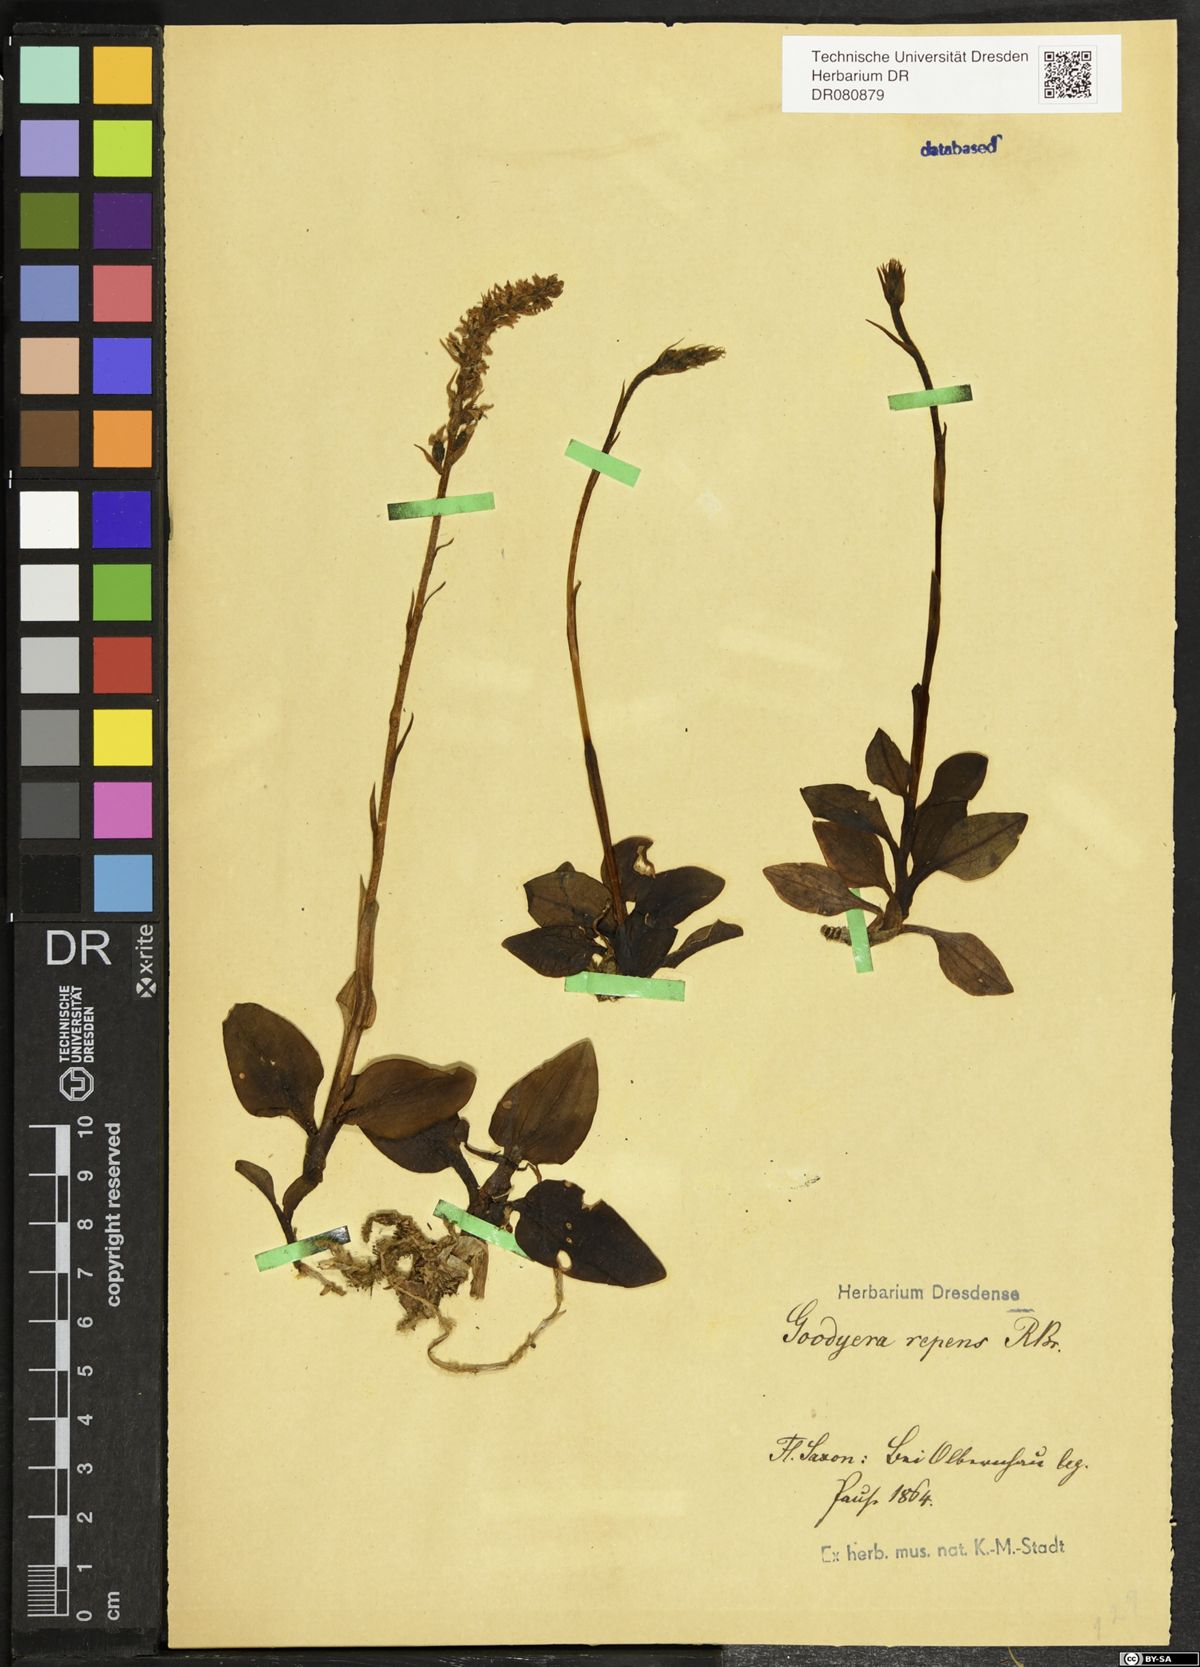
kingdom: Plantae
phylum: Tracheophyta
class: Liliopsida
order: Asparagales
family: Orchidaceae
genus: Goodyera
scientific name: Goodyera repens
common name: Creeping lady's-tresses
